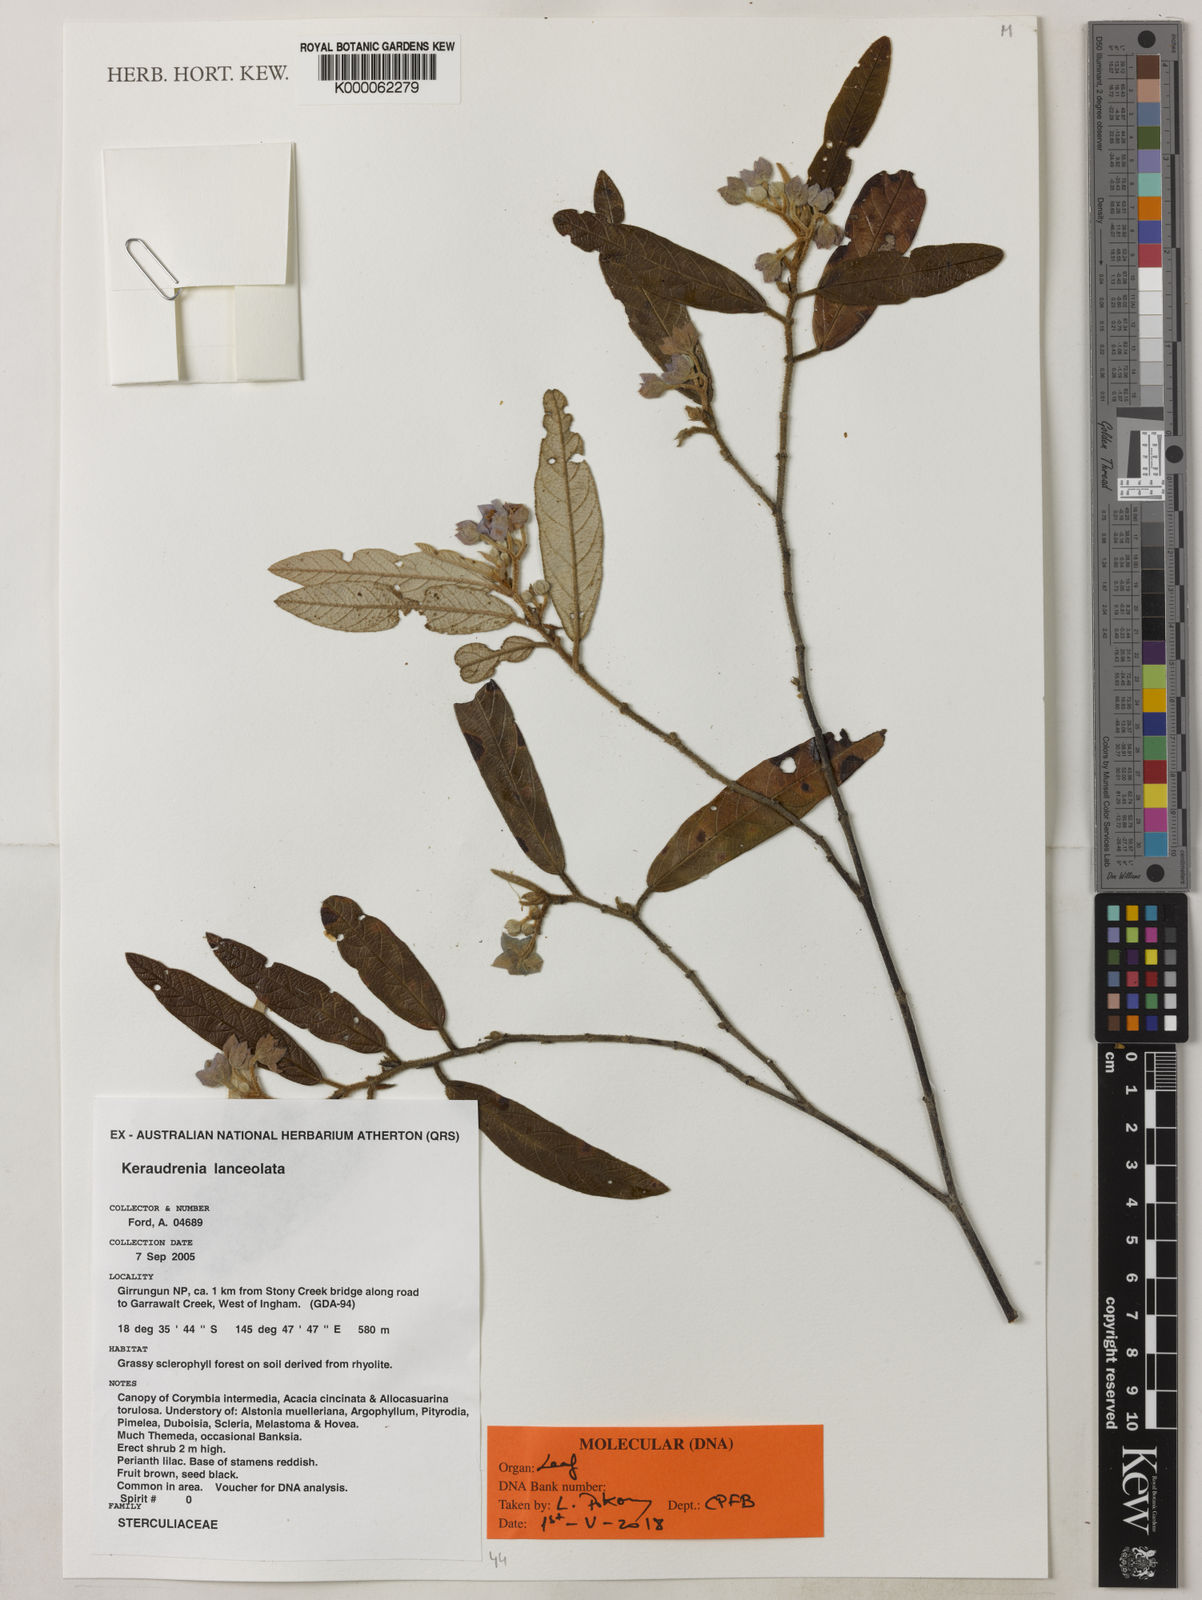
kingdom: Plantae
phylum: Tracheophyta
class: Magnoliopsida
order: Malvales
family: Malvaceae
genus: Seringia
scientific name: Seringia lanceolata
